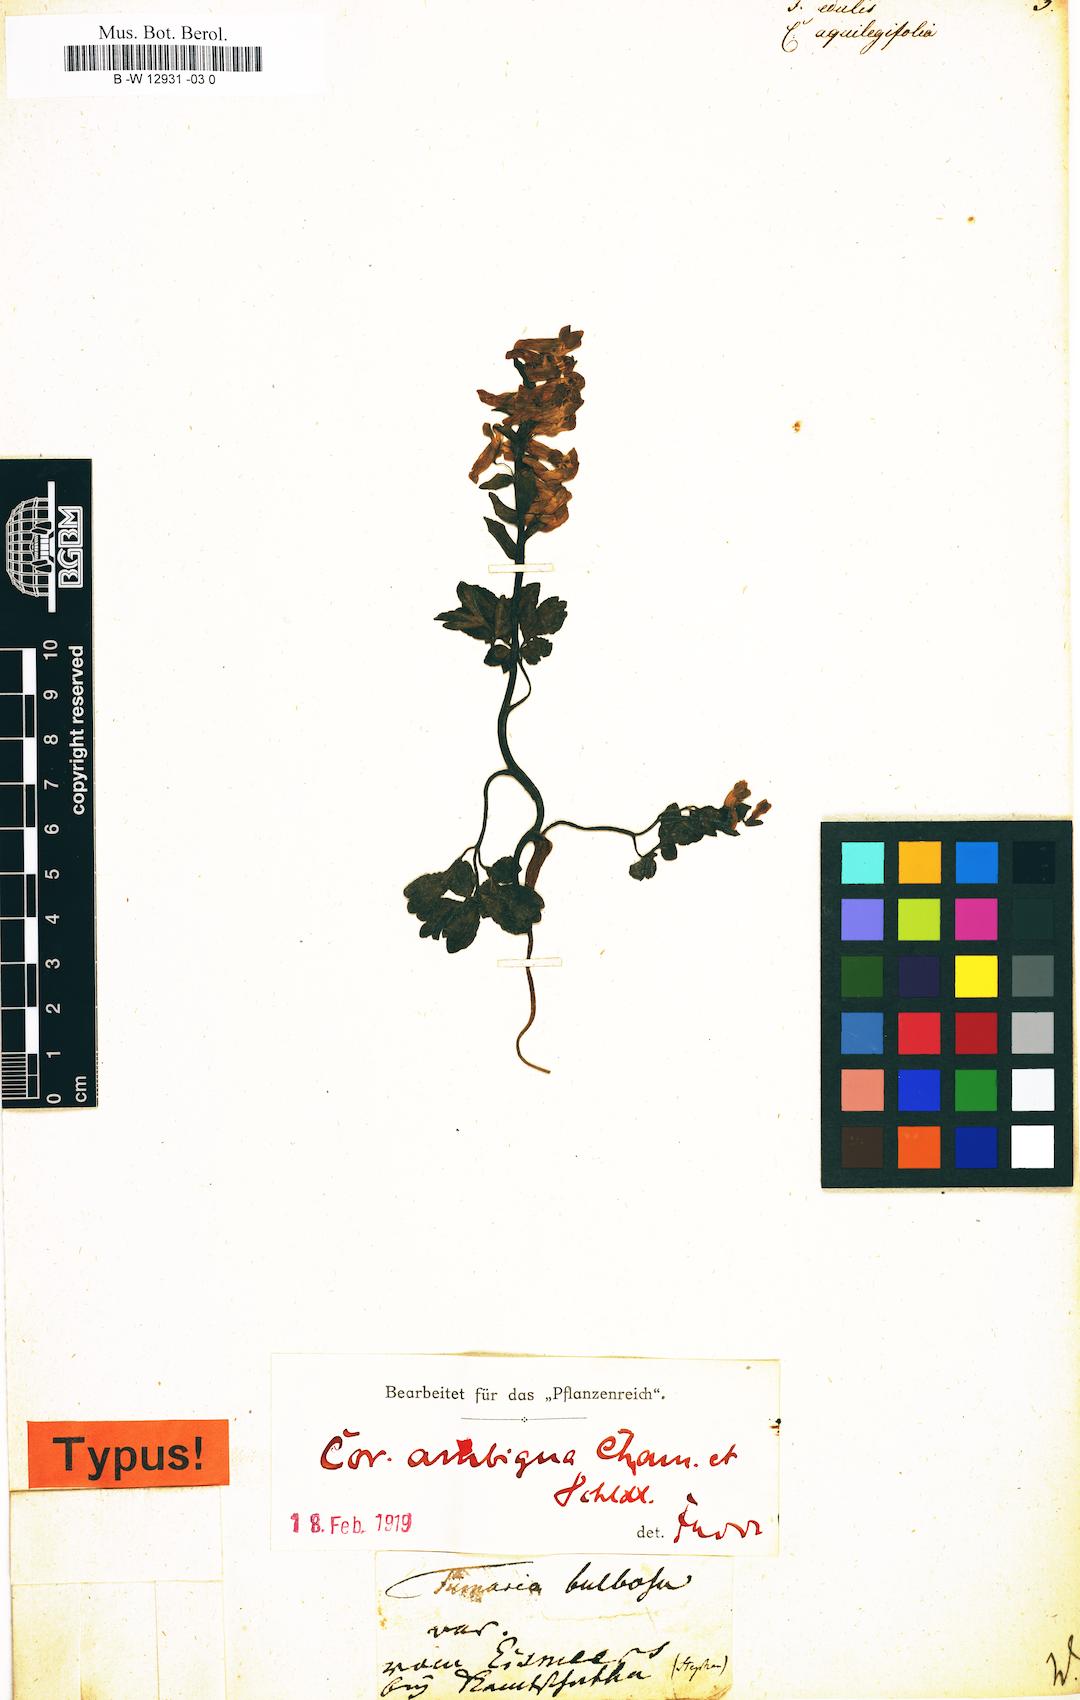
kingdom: Plantae
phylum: Tracheophyta
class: Magnoliopsida
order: Ranunculales
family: Papaveraceae
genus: Fumaria
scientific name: Fumaria
